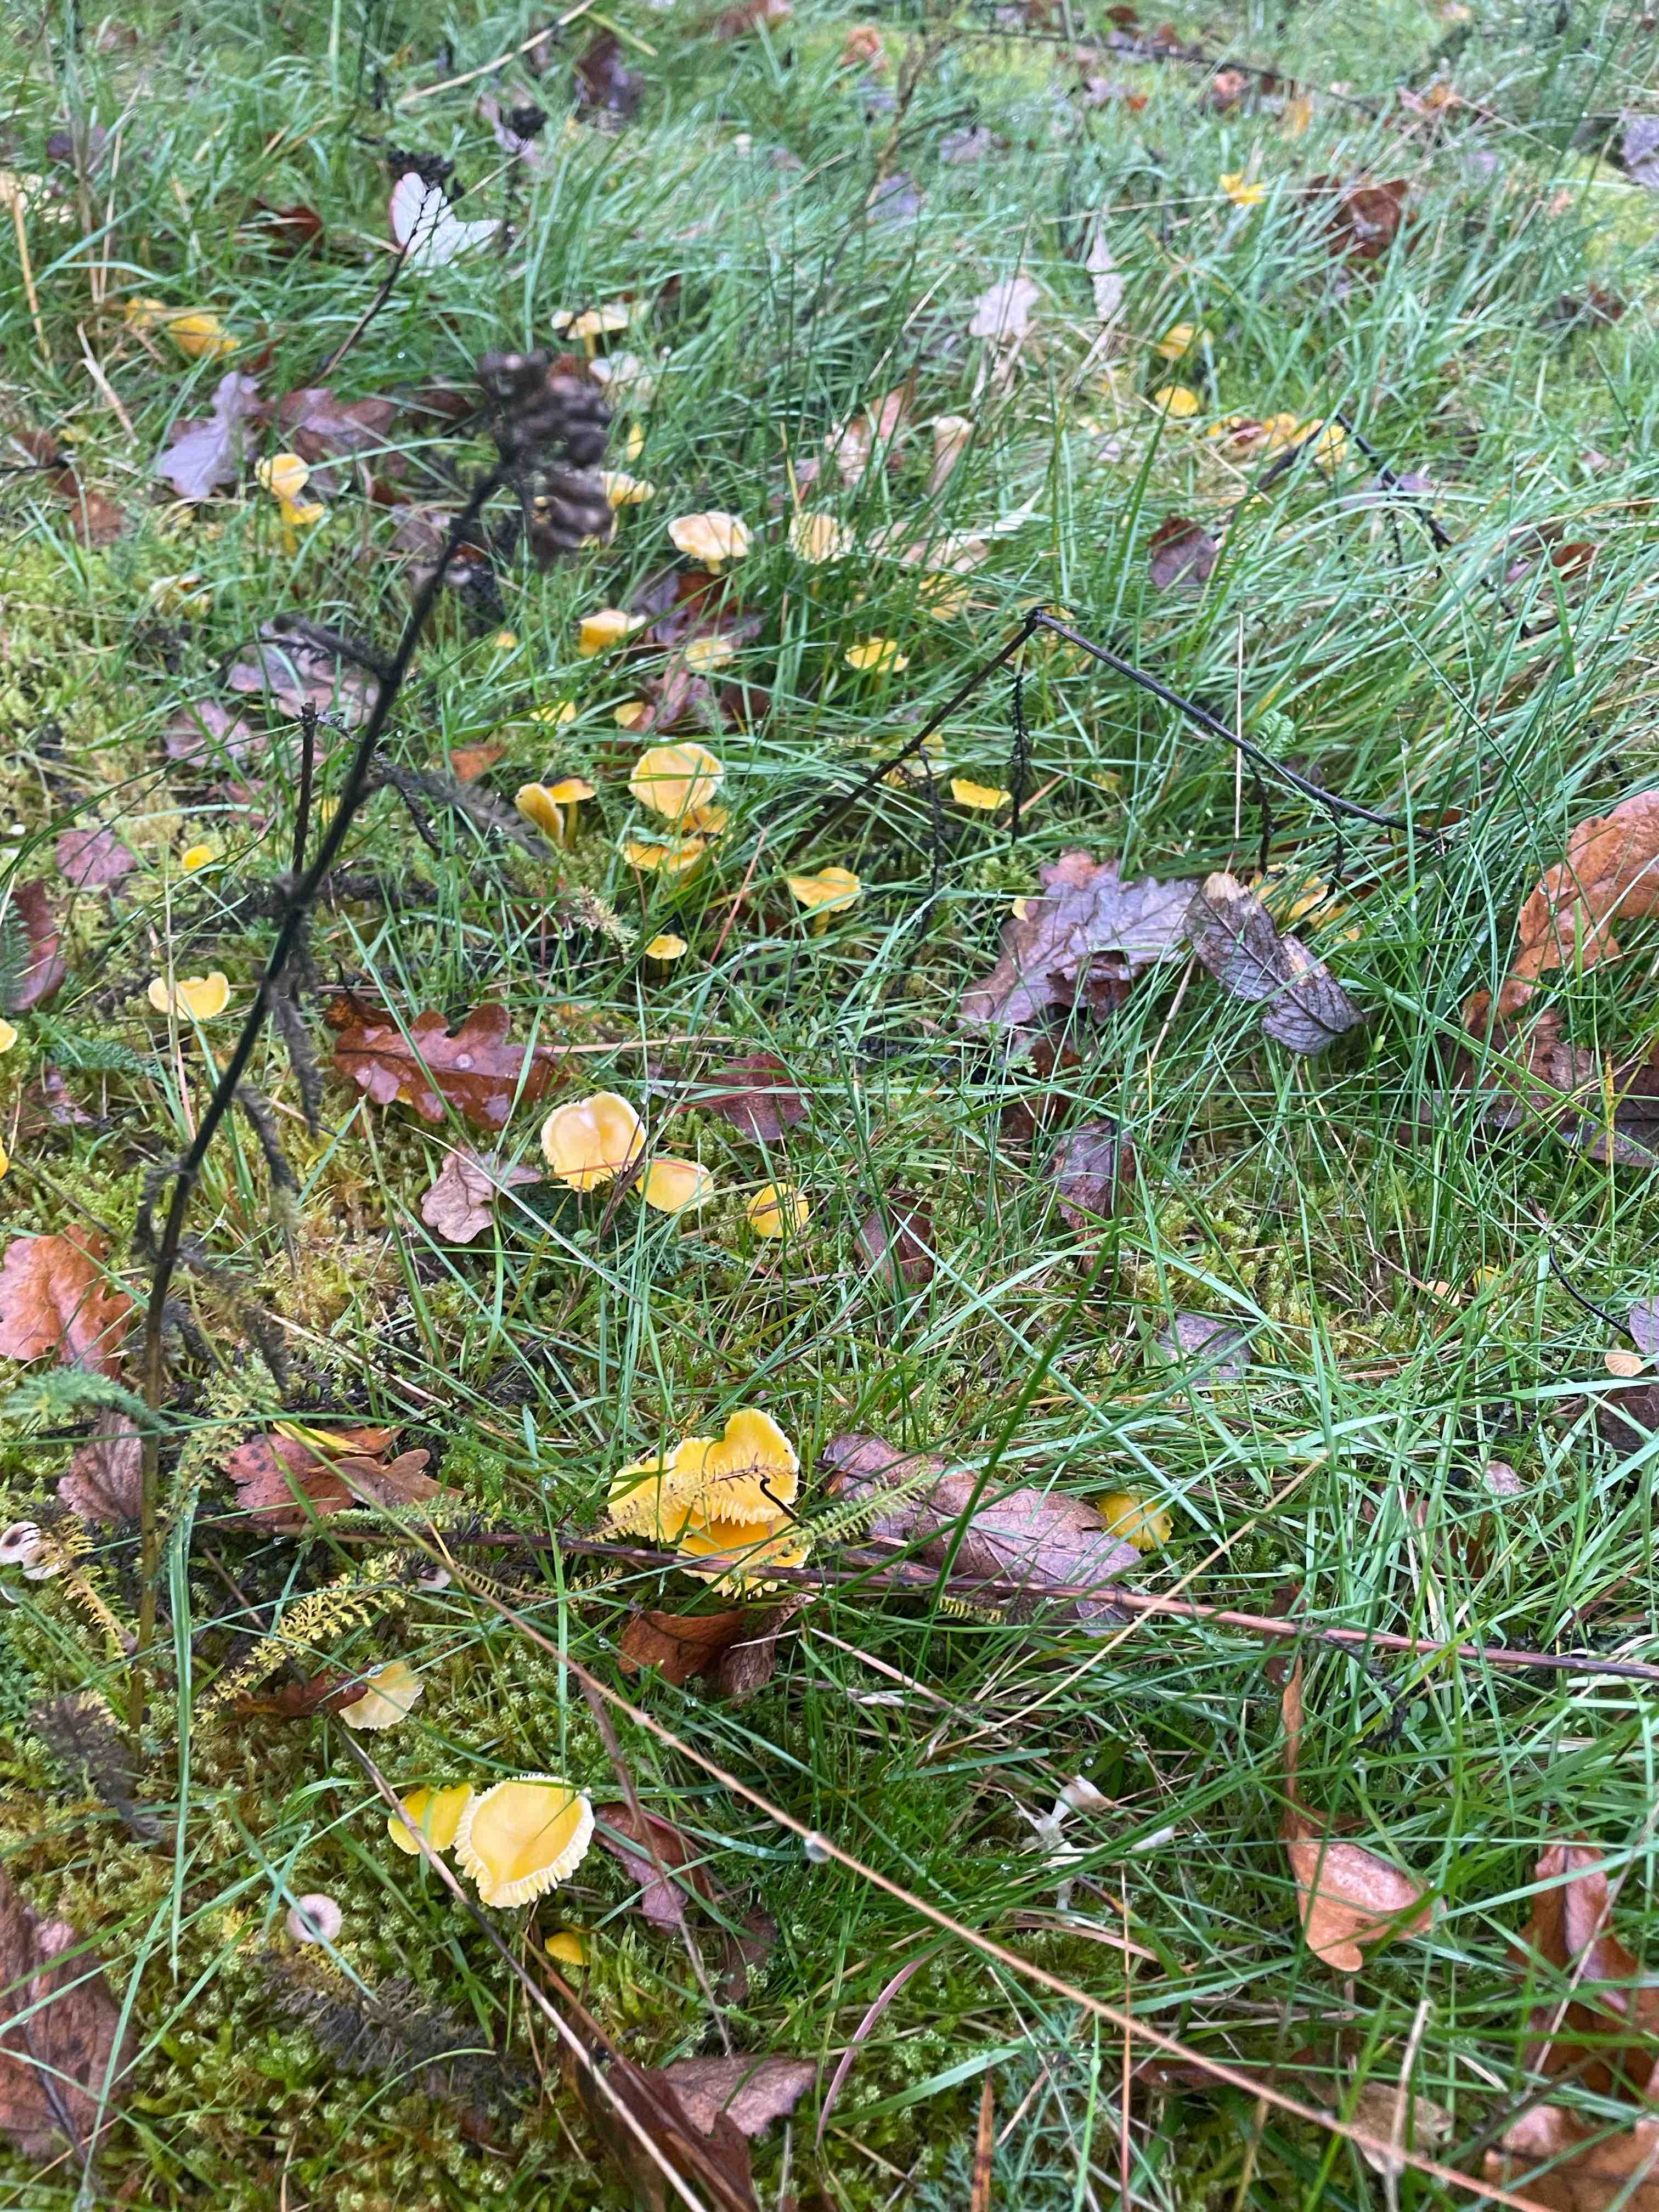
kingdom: Fungi
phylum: Basidiomycota
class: Agaricomycetes
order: Agaricales
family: Hygrophoraceae
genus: Hygrocybe
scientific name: Hygrocybe ceracea
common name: voksgul vokshat
